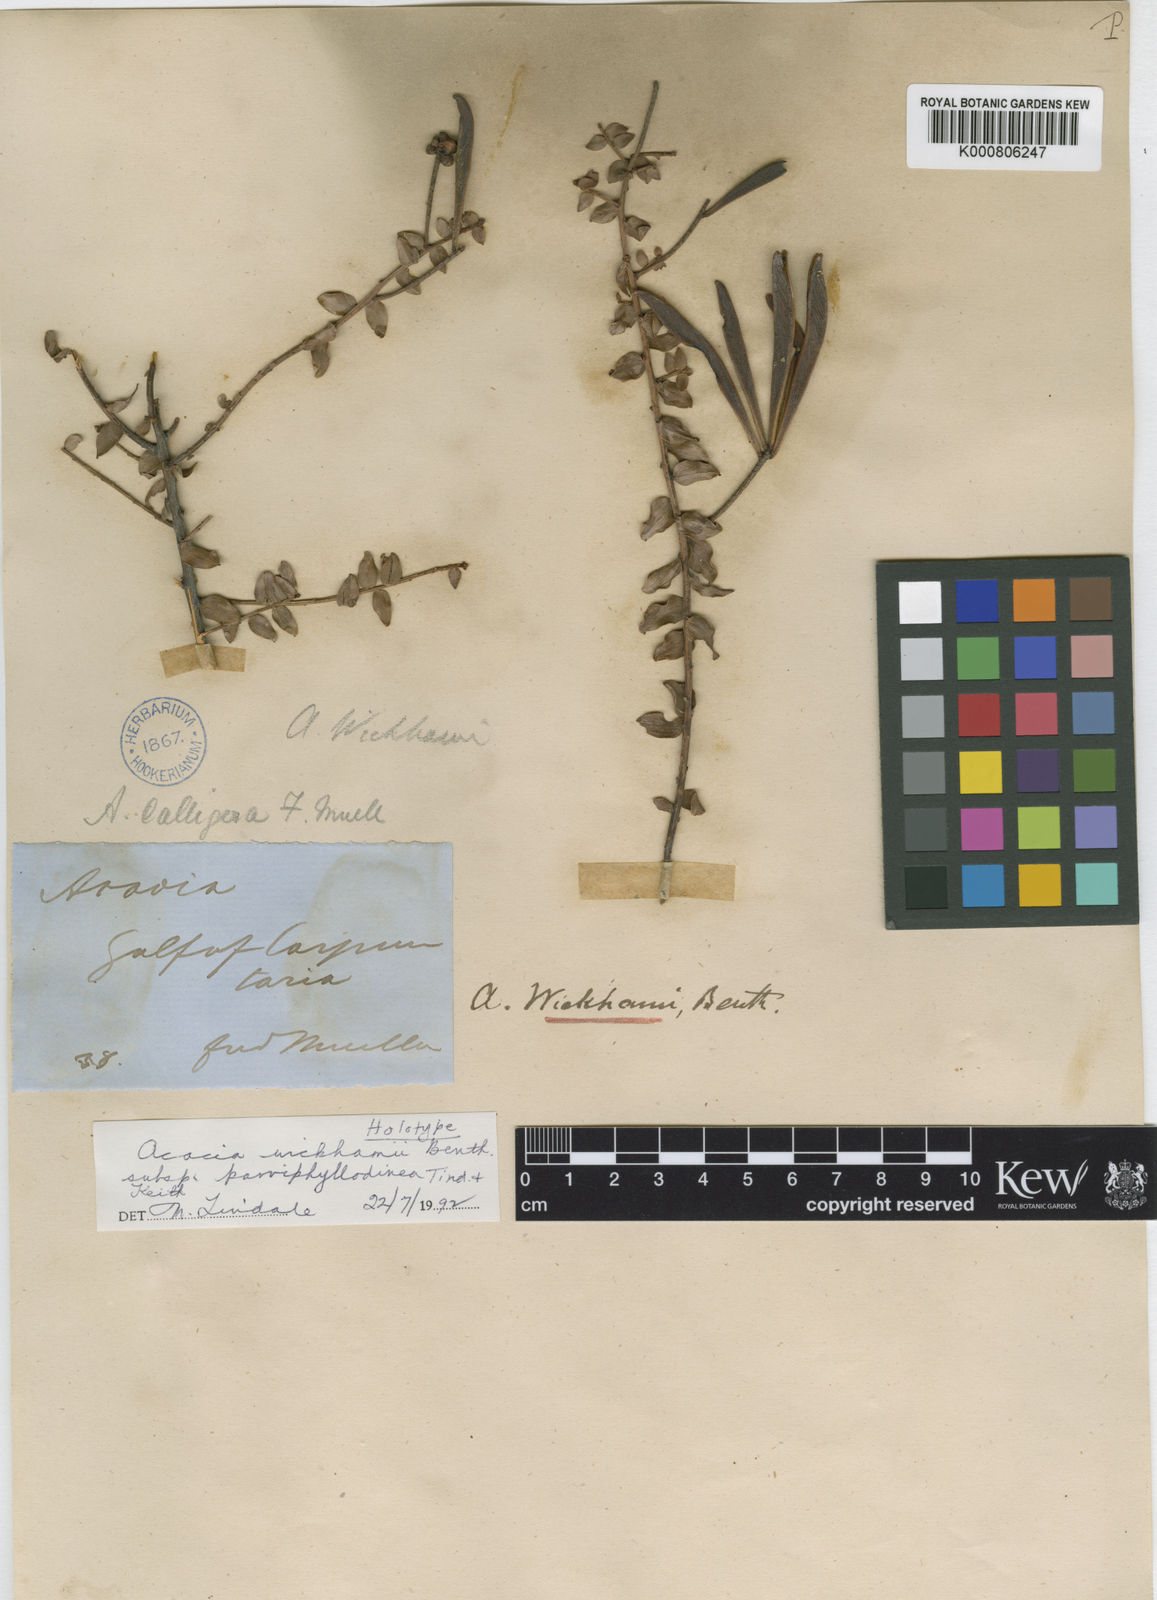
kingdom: Plantae
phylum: Tracheophyta
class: Magnoliopsida
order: Fabales
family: Fabaceae
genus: Acacia
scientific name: Acacia wickhamii
